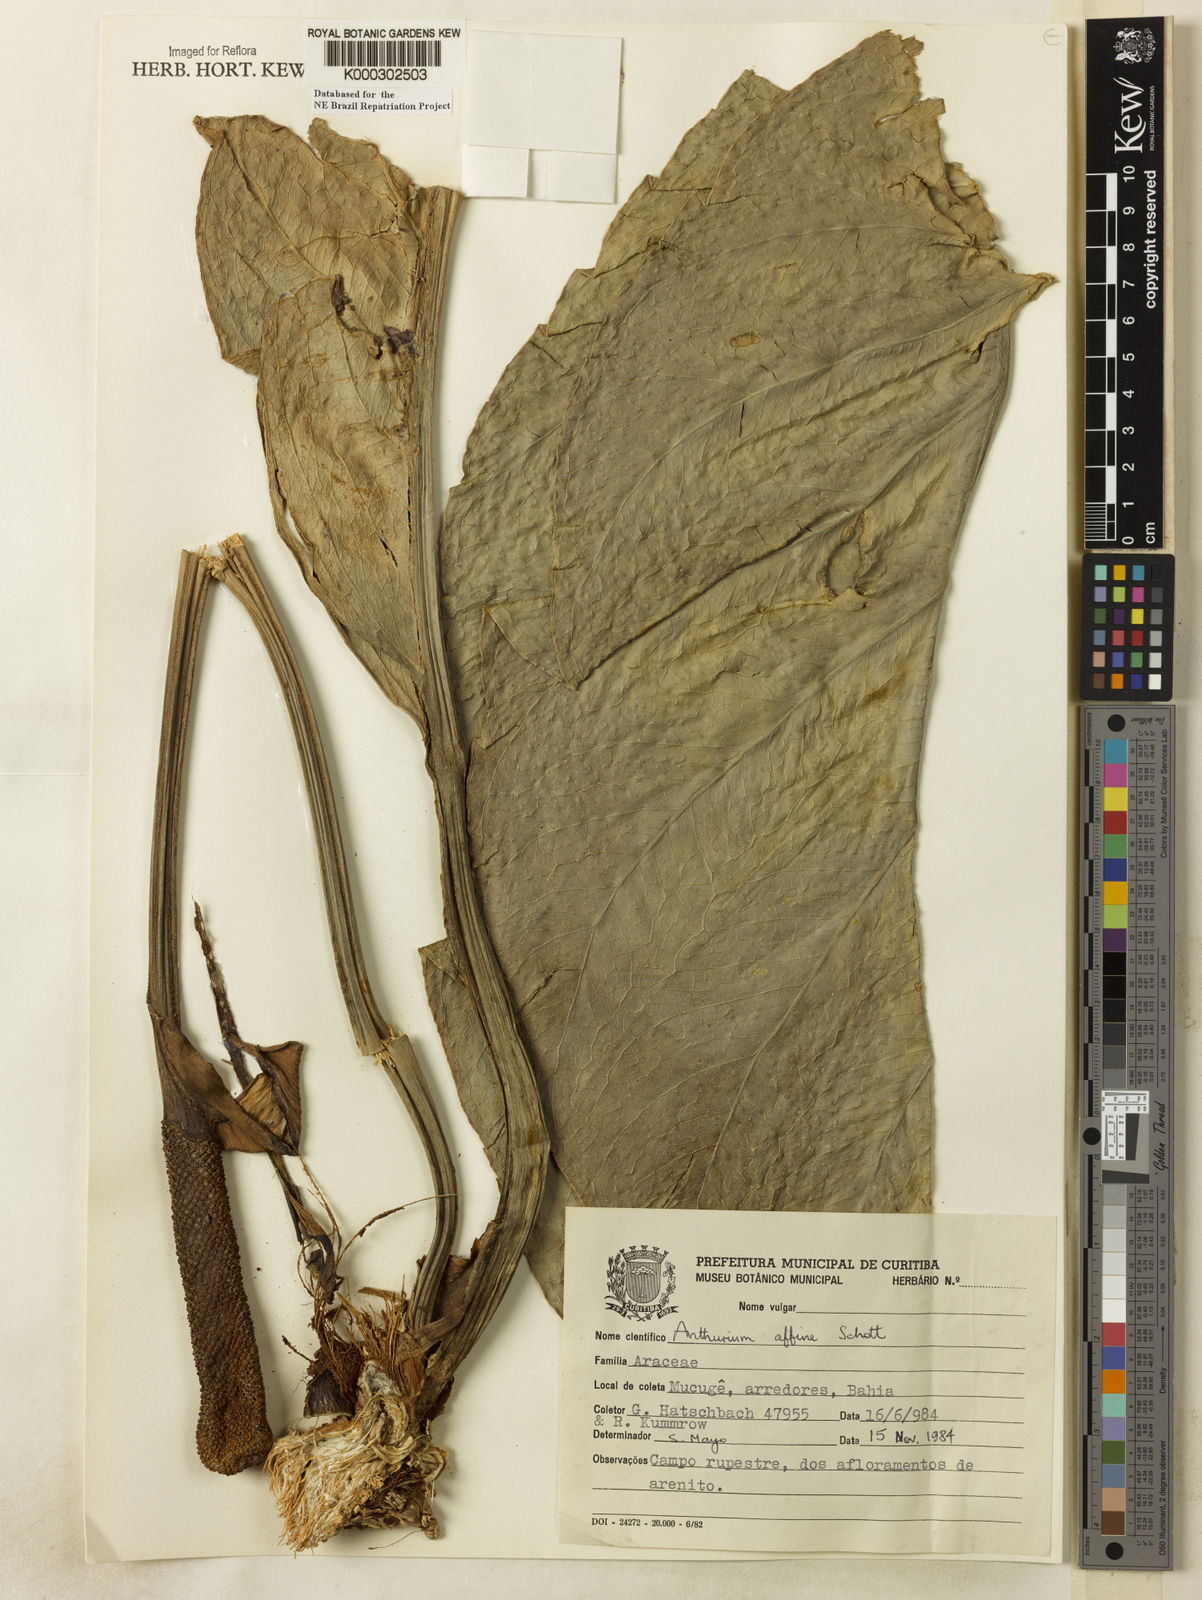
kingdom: Plantae
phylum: Tracheophyta
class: Liliopsida
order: Alismatales
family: Araceae
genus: Anthurium
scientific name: Anthurium affine
